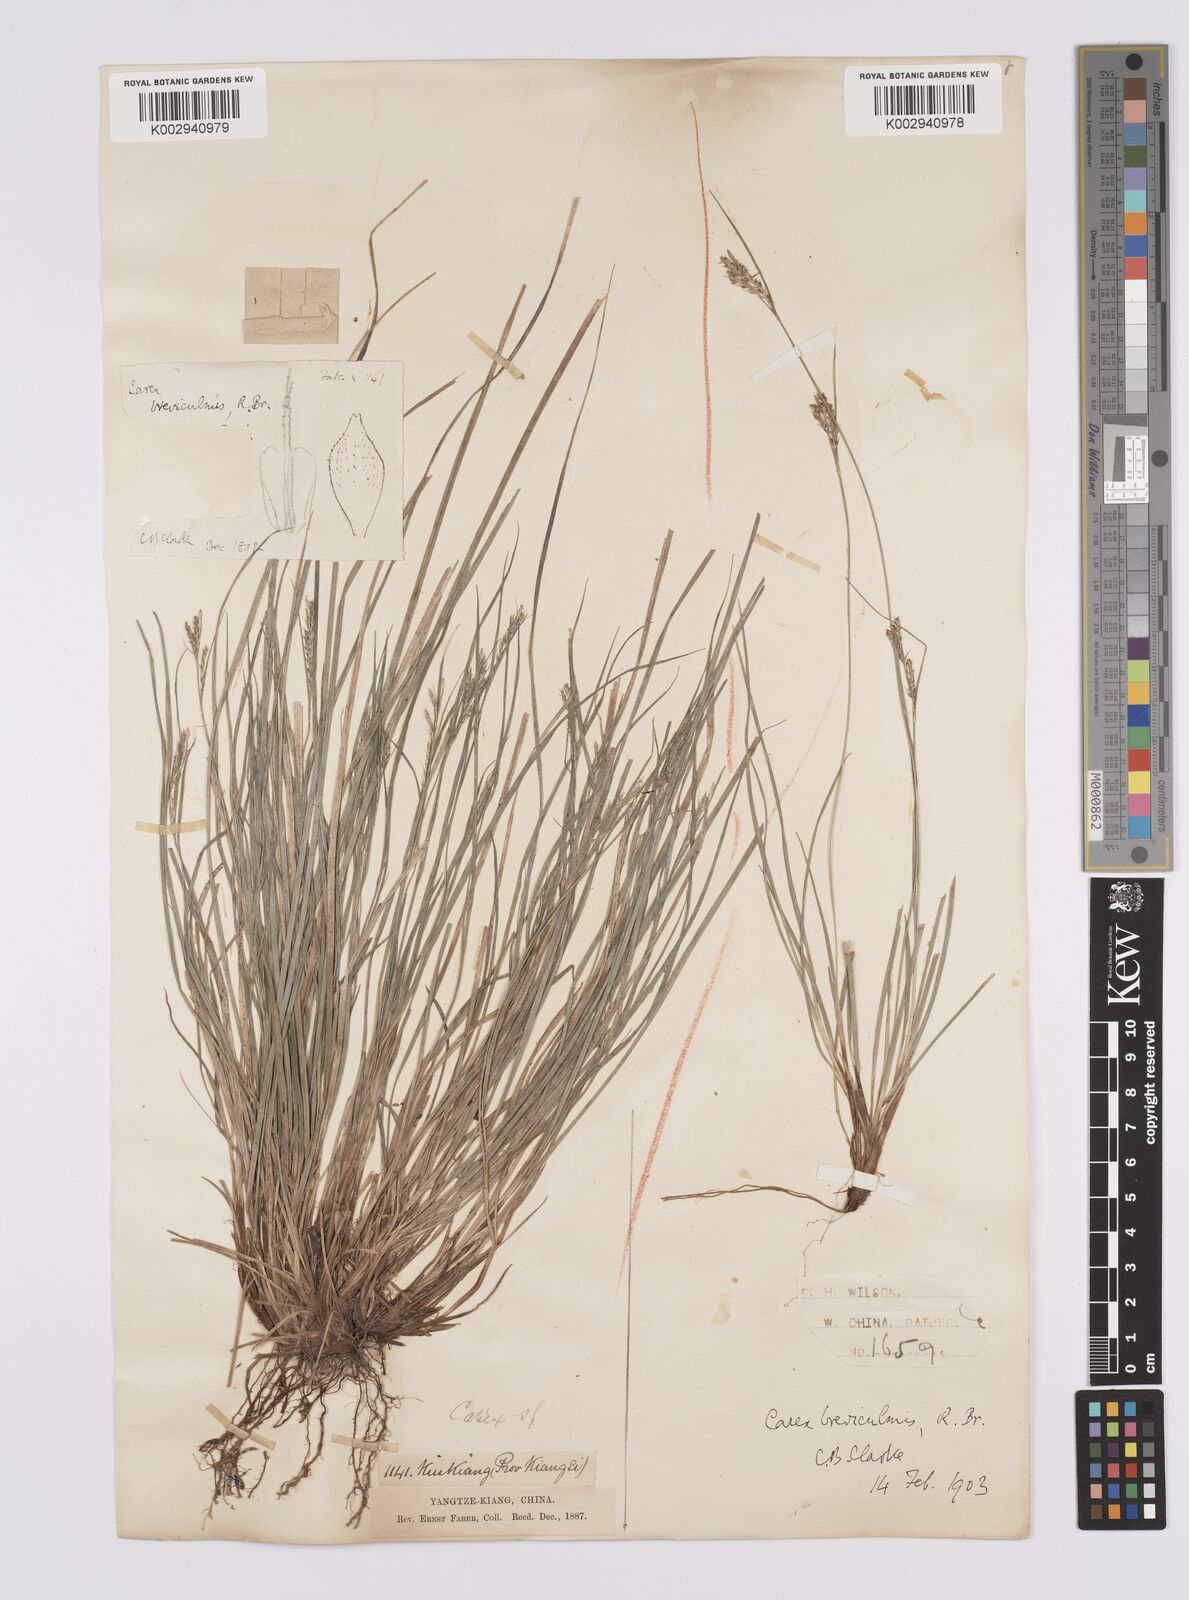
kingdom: Plantae
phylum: Tracheophyta
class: Liliopsida
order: Poales
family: Cyperaceae
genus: Carex
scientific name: Carex breviculmis
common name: Asian shortstem sedge
